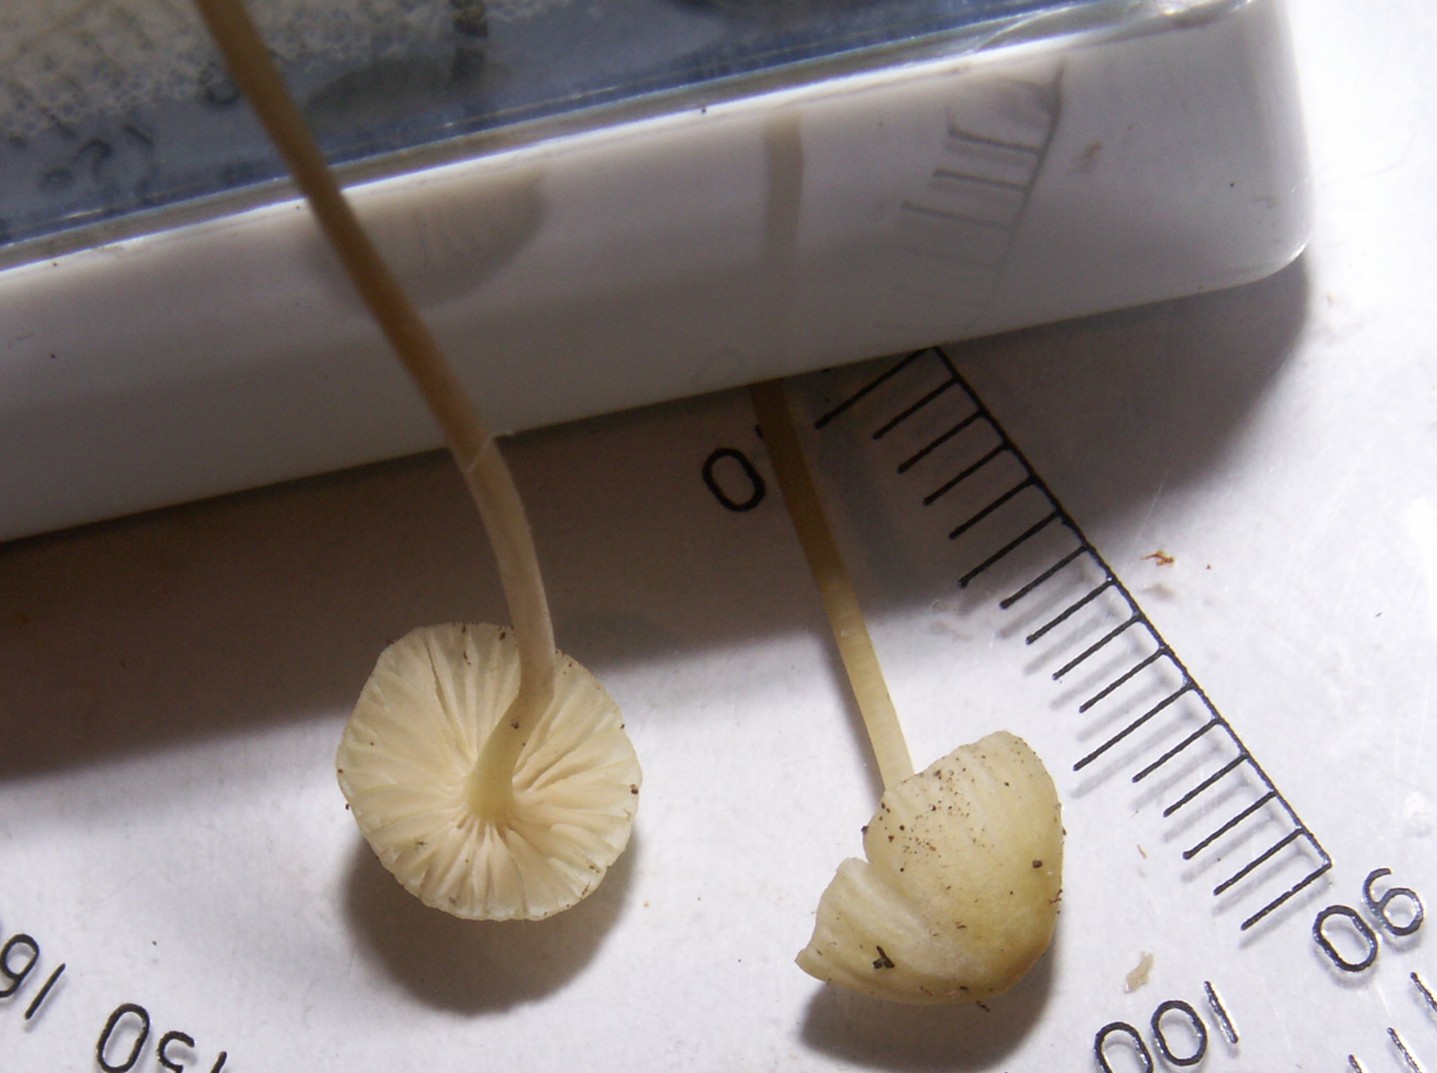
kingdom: Fungi
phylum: Basidiomycota
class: Agaricomycetes
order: Agaricales
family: Mycenaceae
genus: Mycena
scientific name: Mycena epipterygia
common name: gulstokket huesvamp
